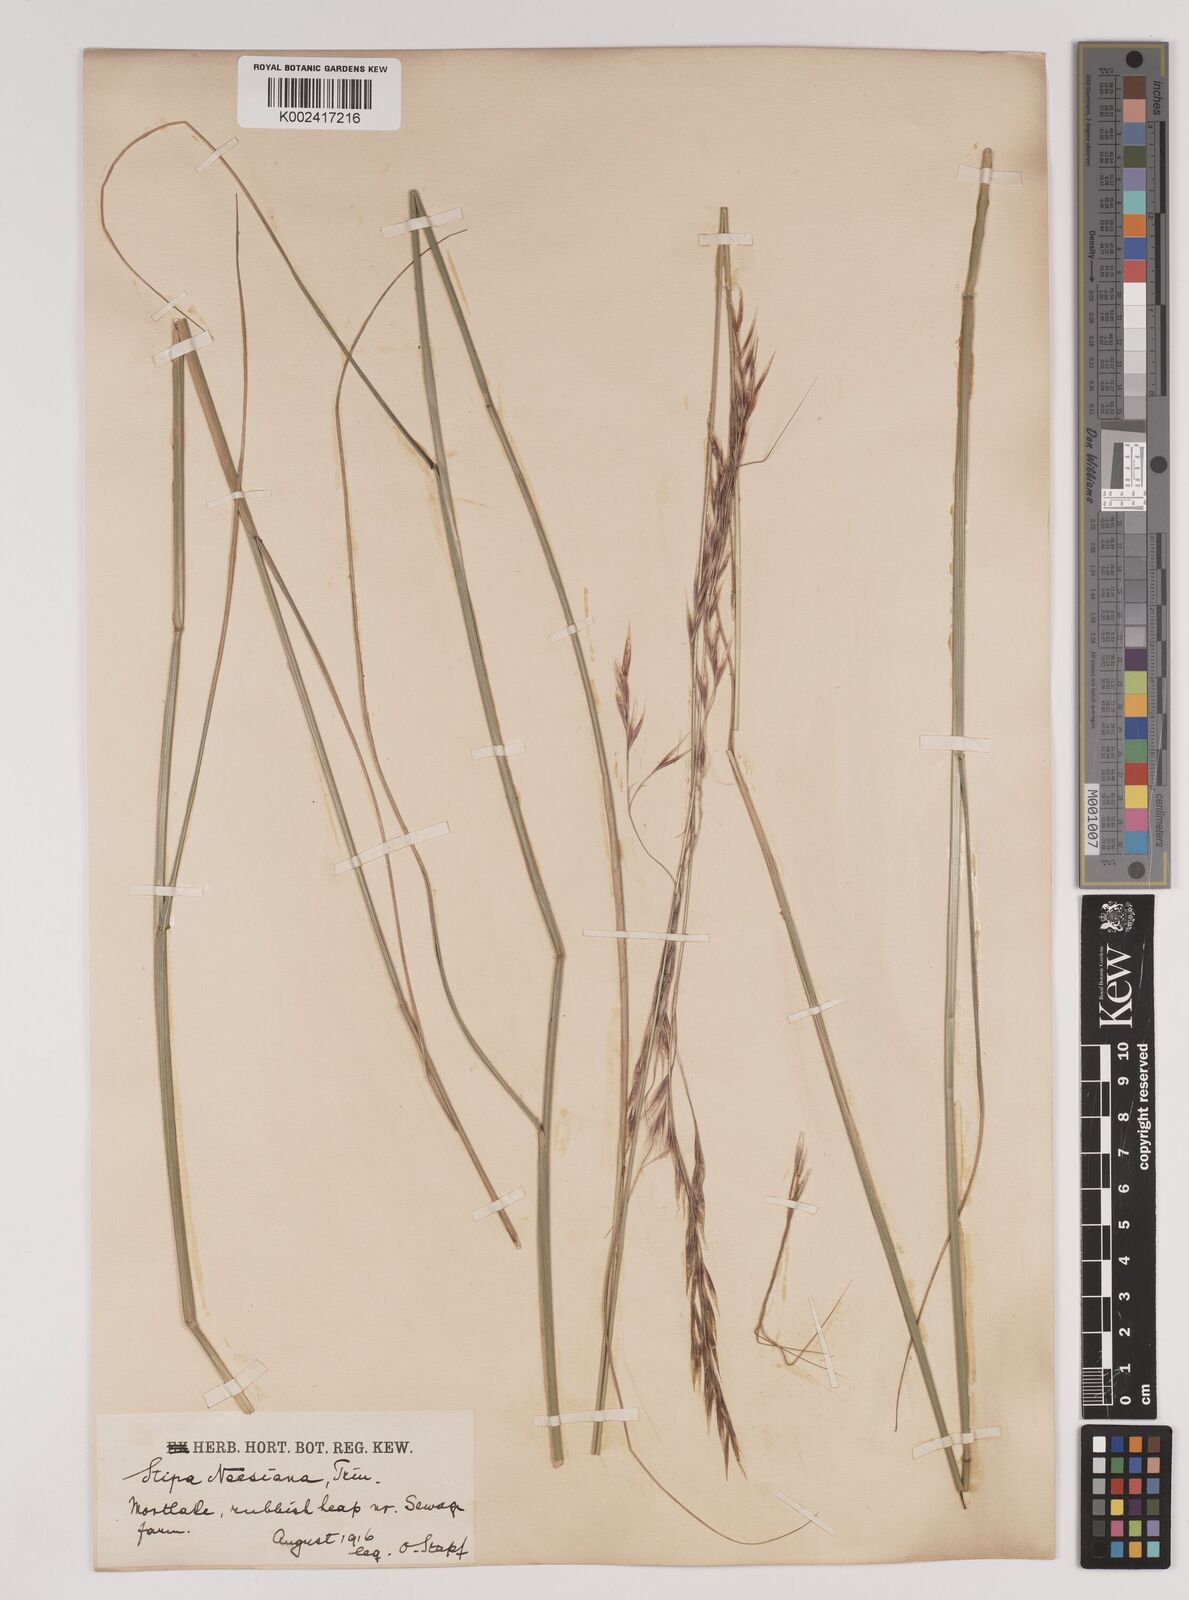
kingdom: Plantae
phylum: Tracheophyta
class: Liliopsida
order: Poales
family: Poaceae
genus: Nassella
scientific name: Nassella neesiana
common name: American needle-grass
